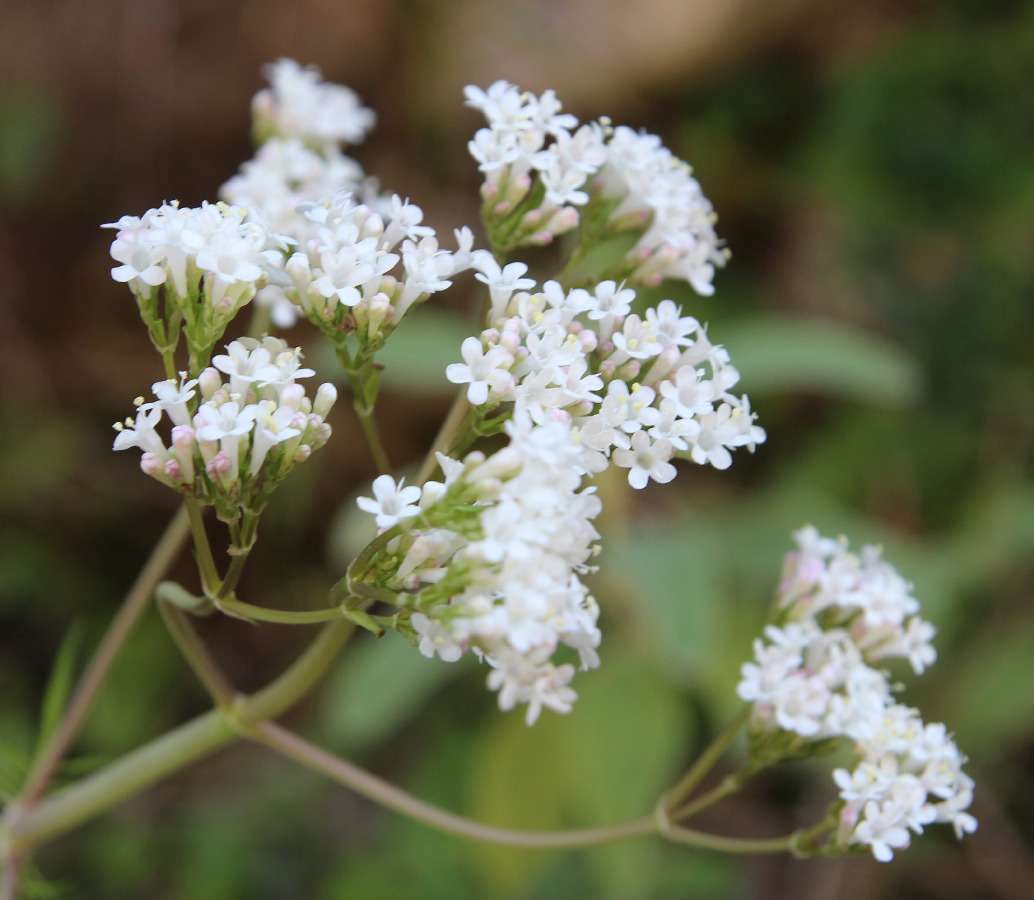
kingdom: Plantae
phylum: Tracheophyta
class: Magnoliopsida
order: Dipsacales
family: Caprifoliaceae
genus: Valeriana
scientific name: Valeriana dioscoridis
